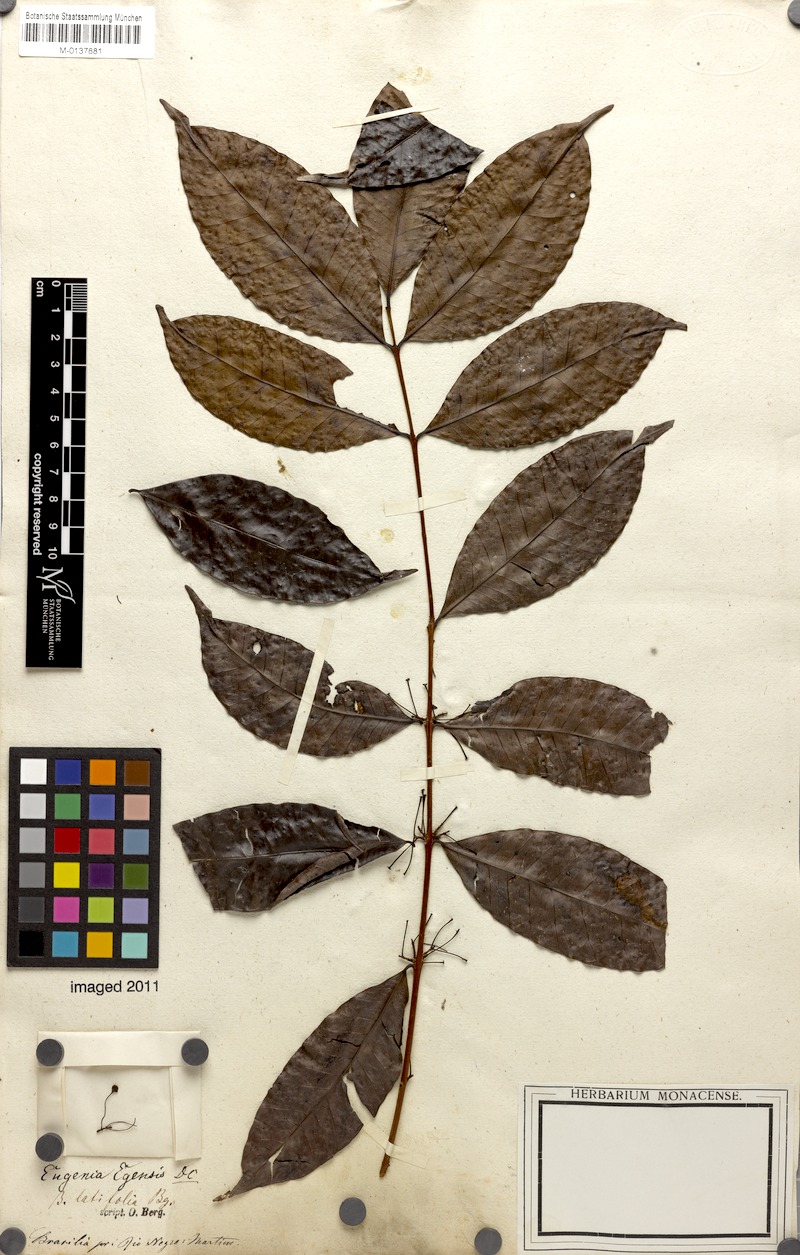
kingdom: Plantae
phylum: Tracheophyta
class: Magnoliopsida
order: Myrtales
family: Myrtaceae
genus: Eugenia
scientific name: Eugenia egensis
